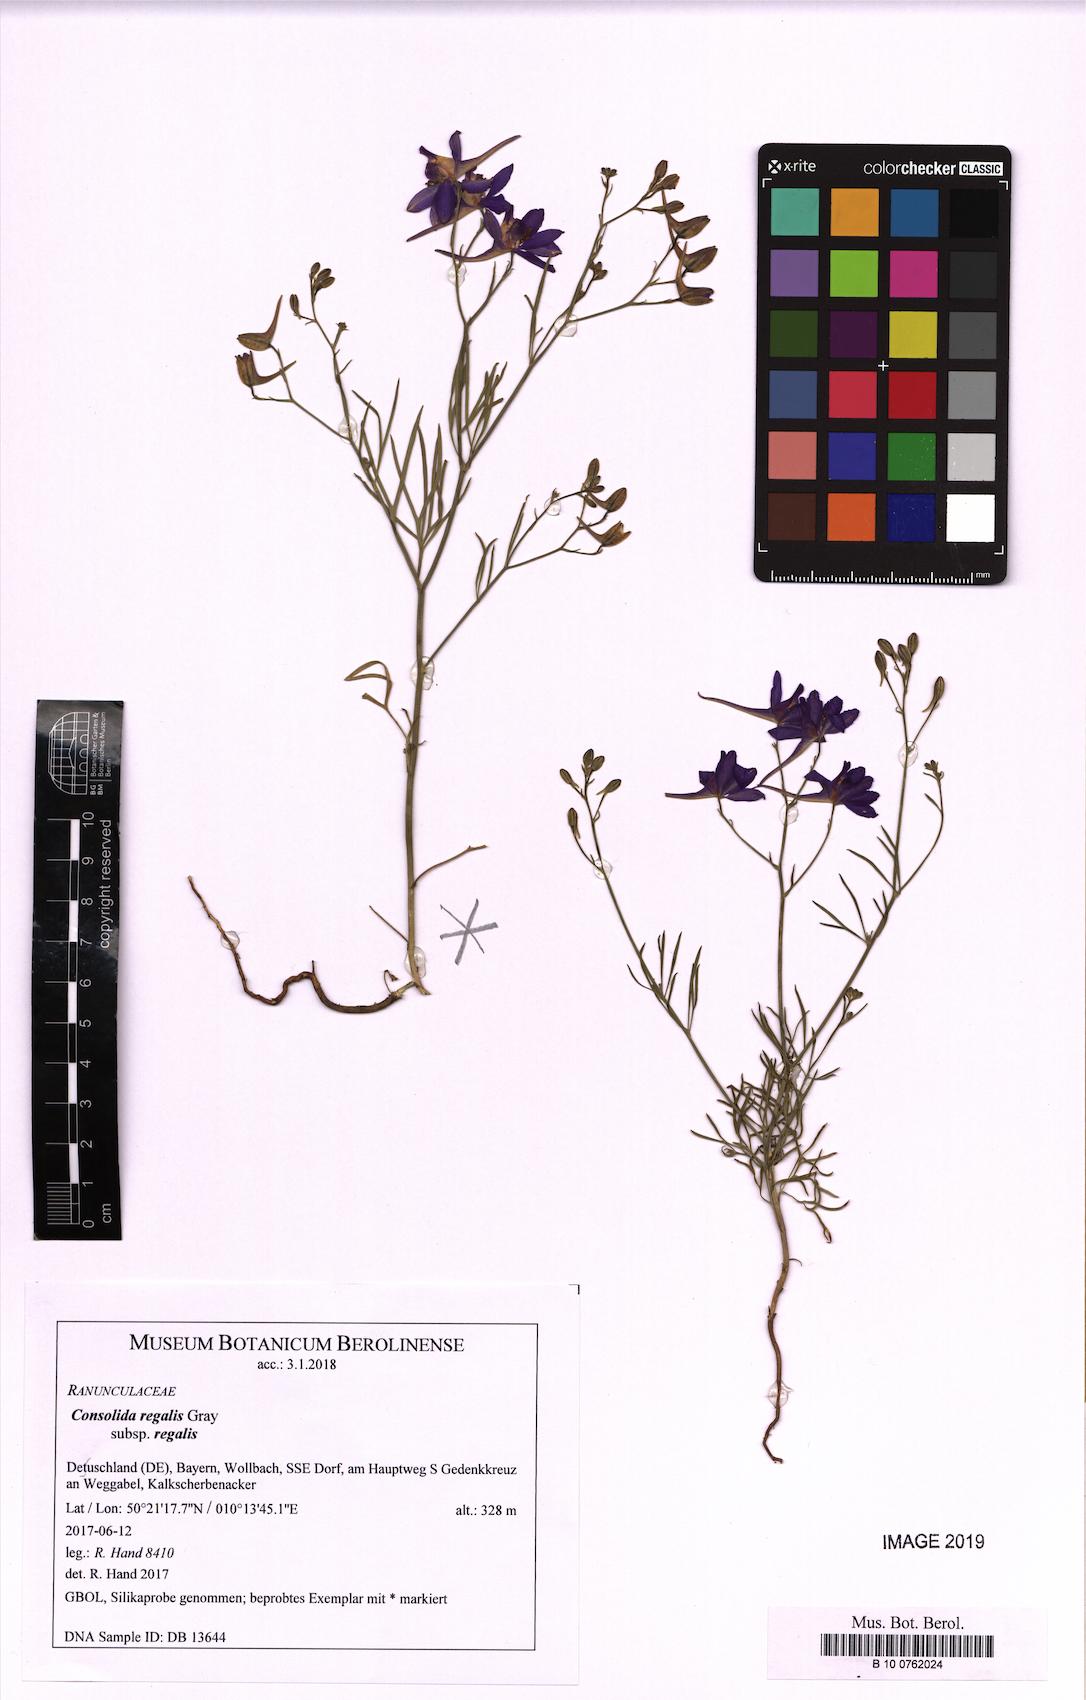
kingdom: Plantae
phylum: Tracheophyta
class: Magnoliopsida
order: Ranunculales
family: Ranunculaceae
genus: Delphinium
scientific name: Delphinium consolida
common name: Branching larkspur
